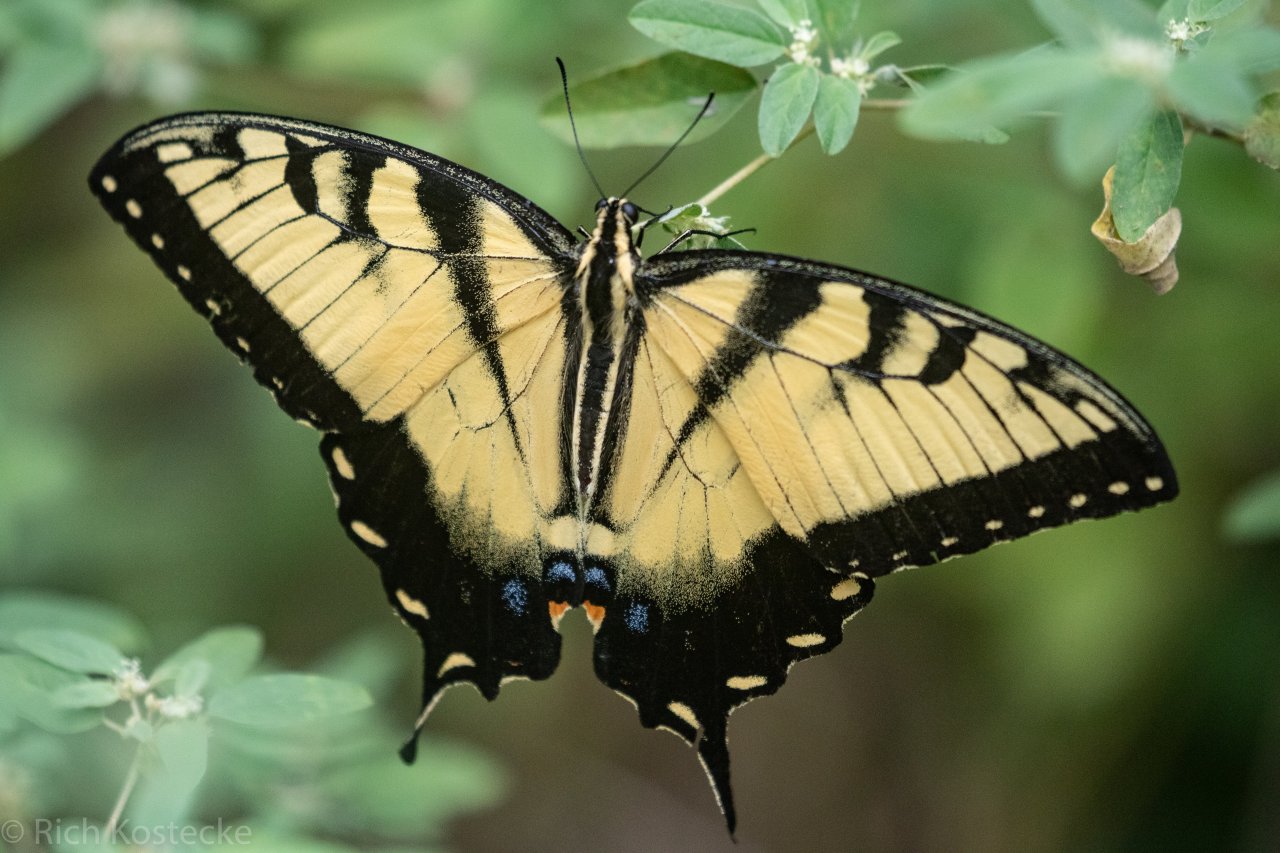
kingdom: Animalia
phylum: Arthropoda
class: Insecta
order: Lepidoptera
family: Papilionidae
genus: Pterourus
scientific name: Pterourus glaucus
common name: Eastern Tiger Swallowtail
